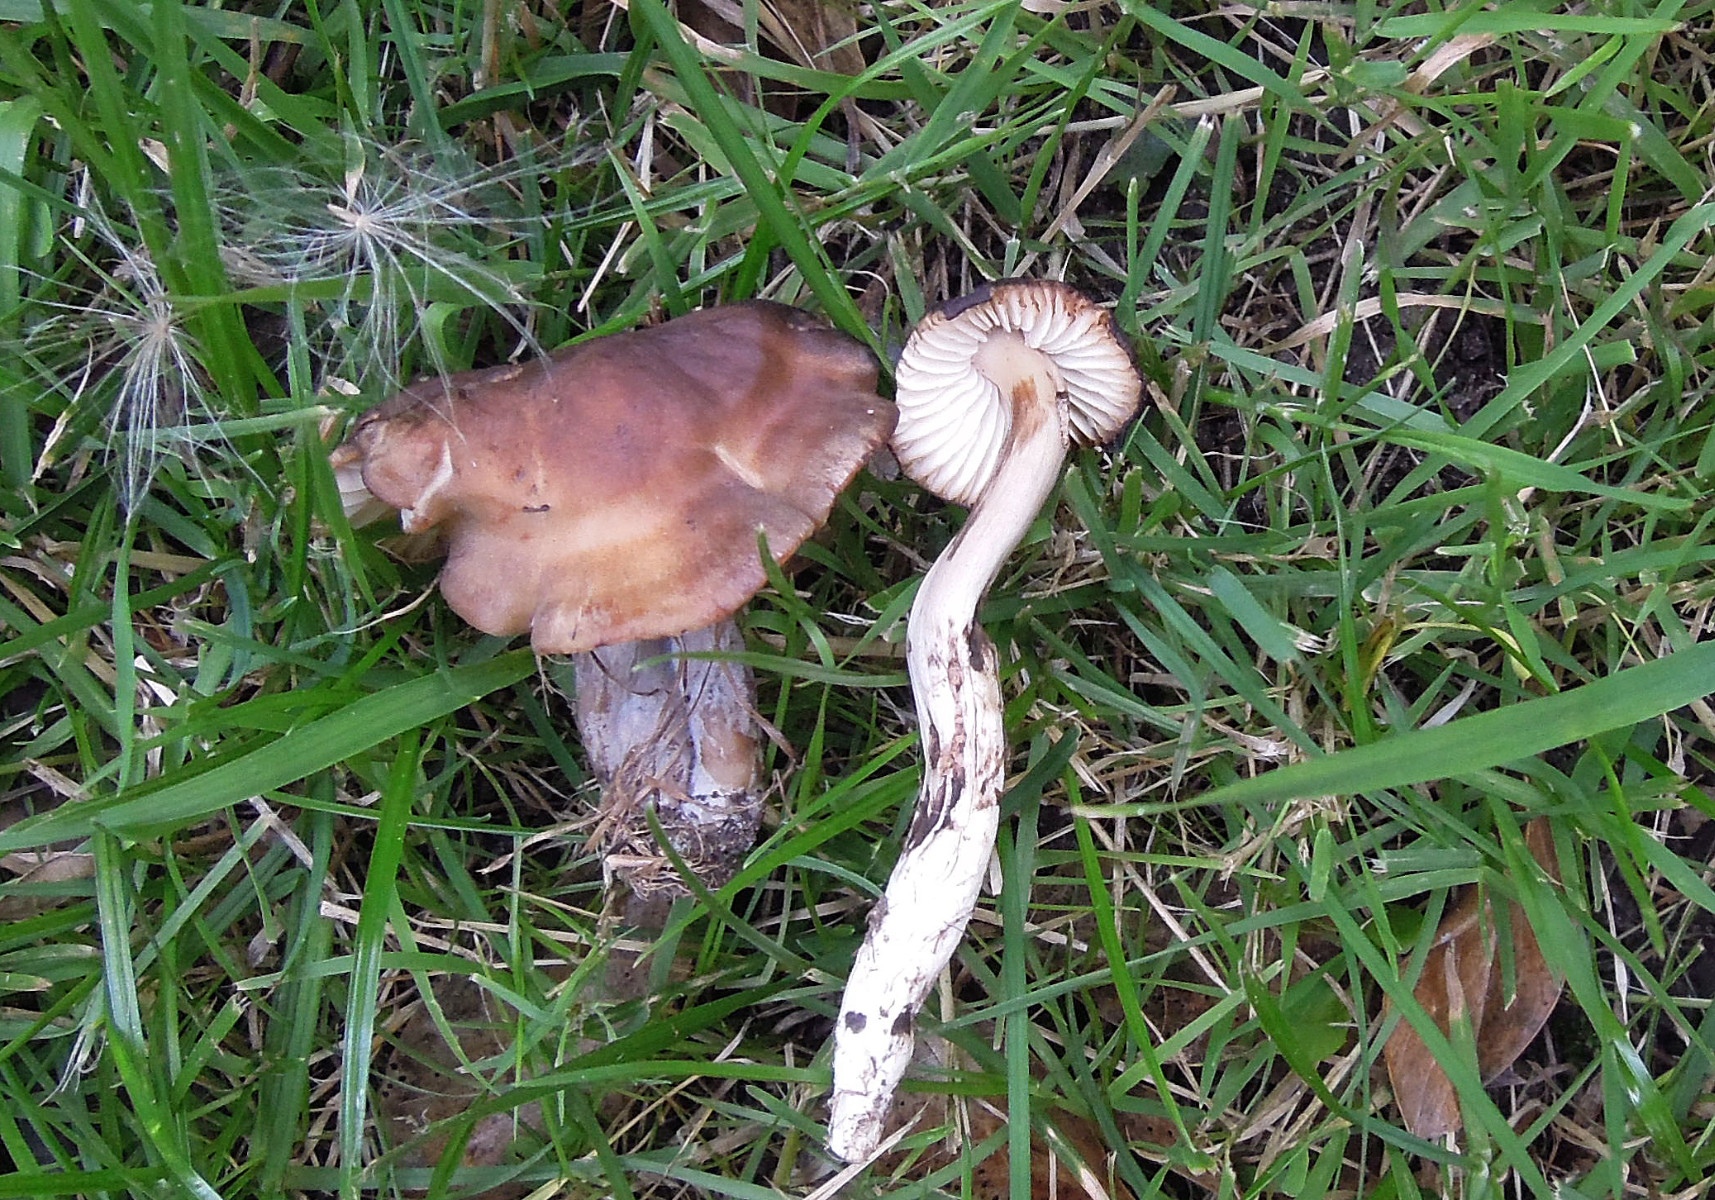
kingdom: Fungi
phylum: Basidiomycota
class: Agaricomycetes
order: Agaricales
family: Hygrophoraceae
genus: Hygrocybe
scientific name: Hygrocybe ingrata
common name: Jensens vokshat
